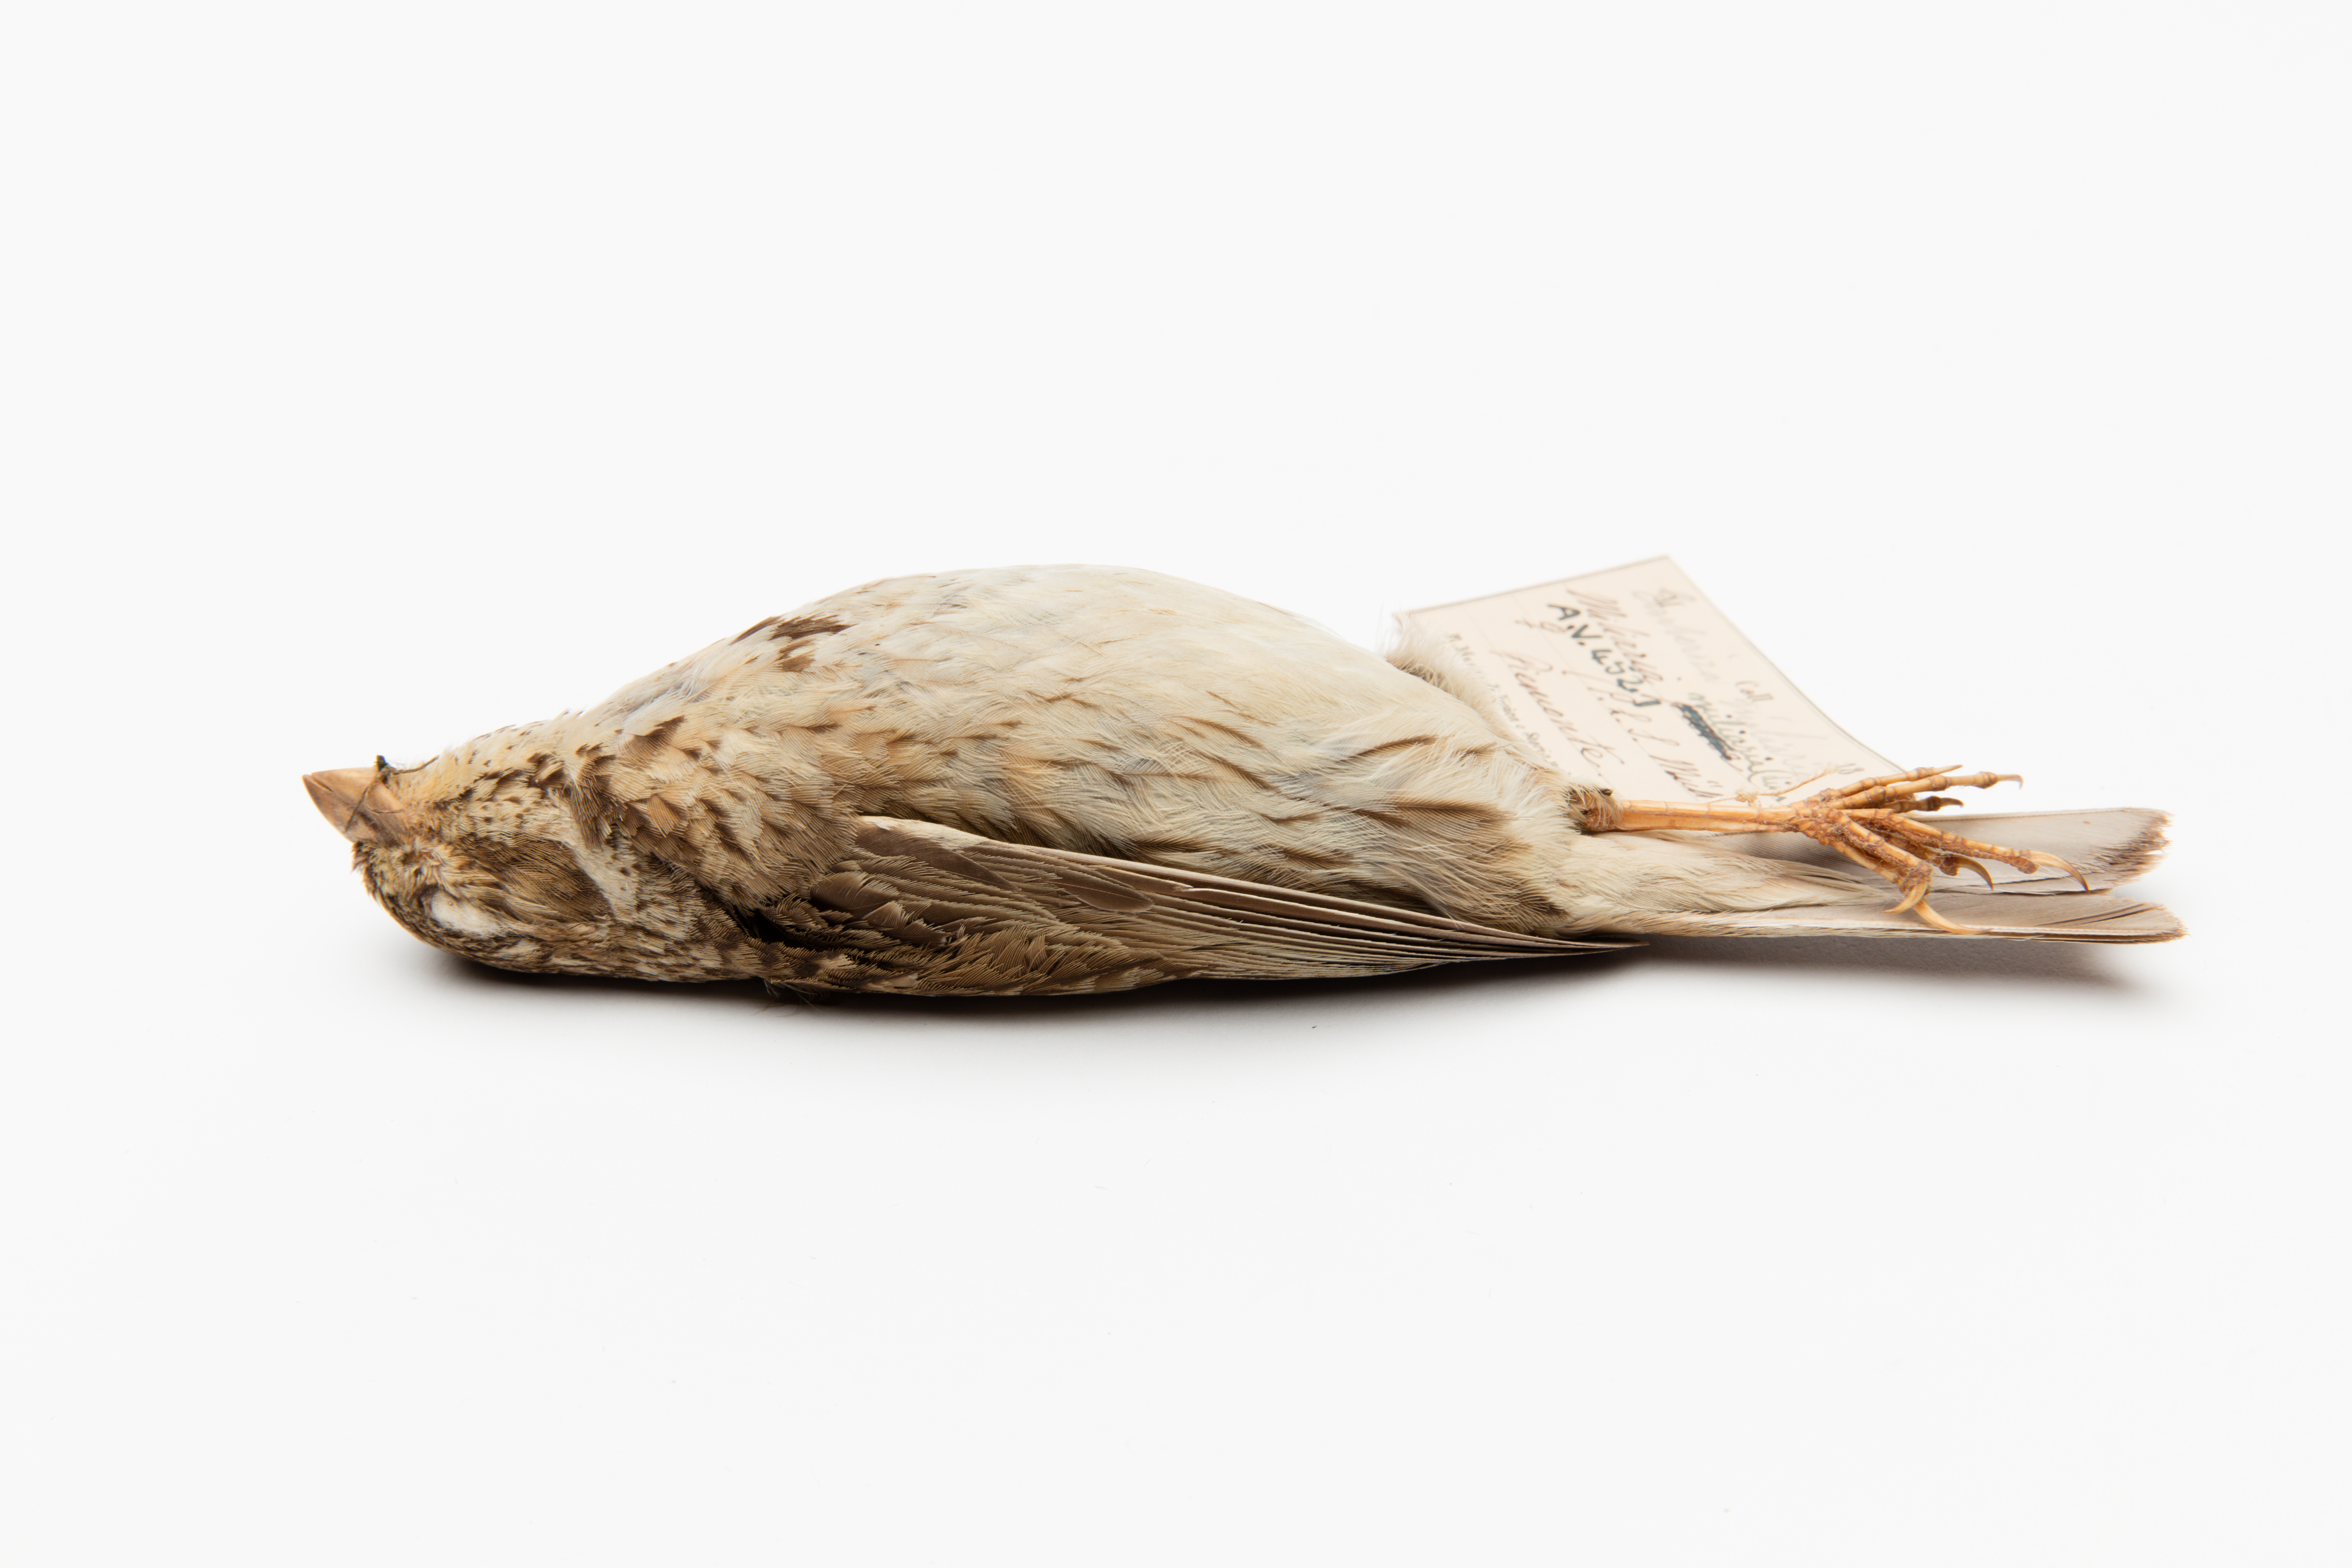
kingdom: Animalia
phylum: Chordata
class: Aves
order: Passeriformes
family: Emberizidae
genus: Emberiza
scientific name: Emberiza calandra
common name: Corn bunting
